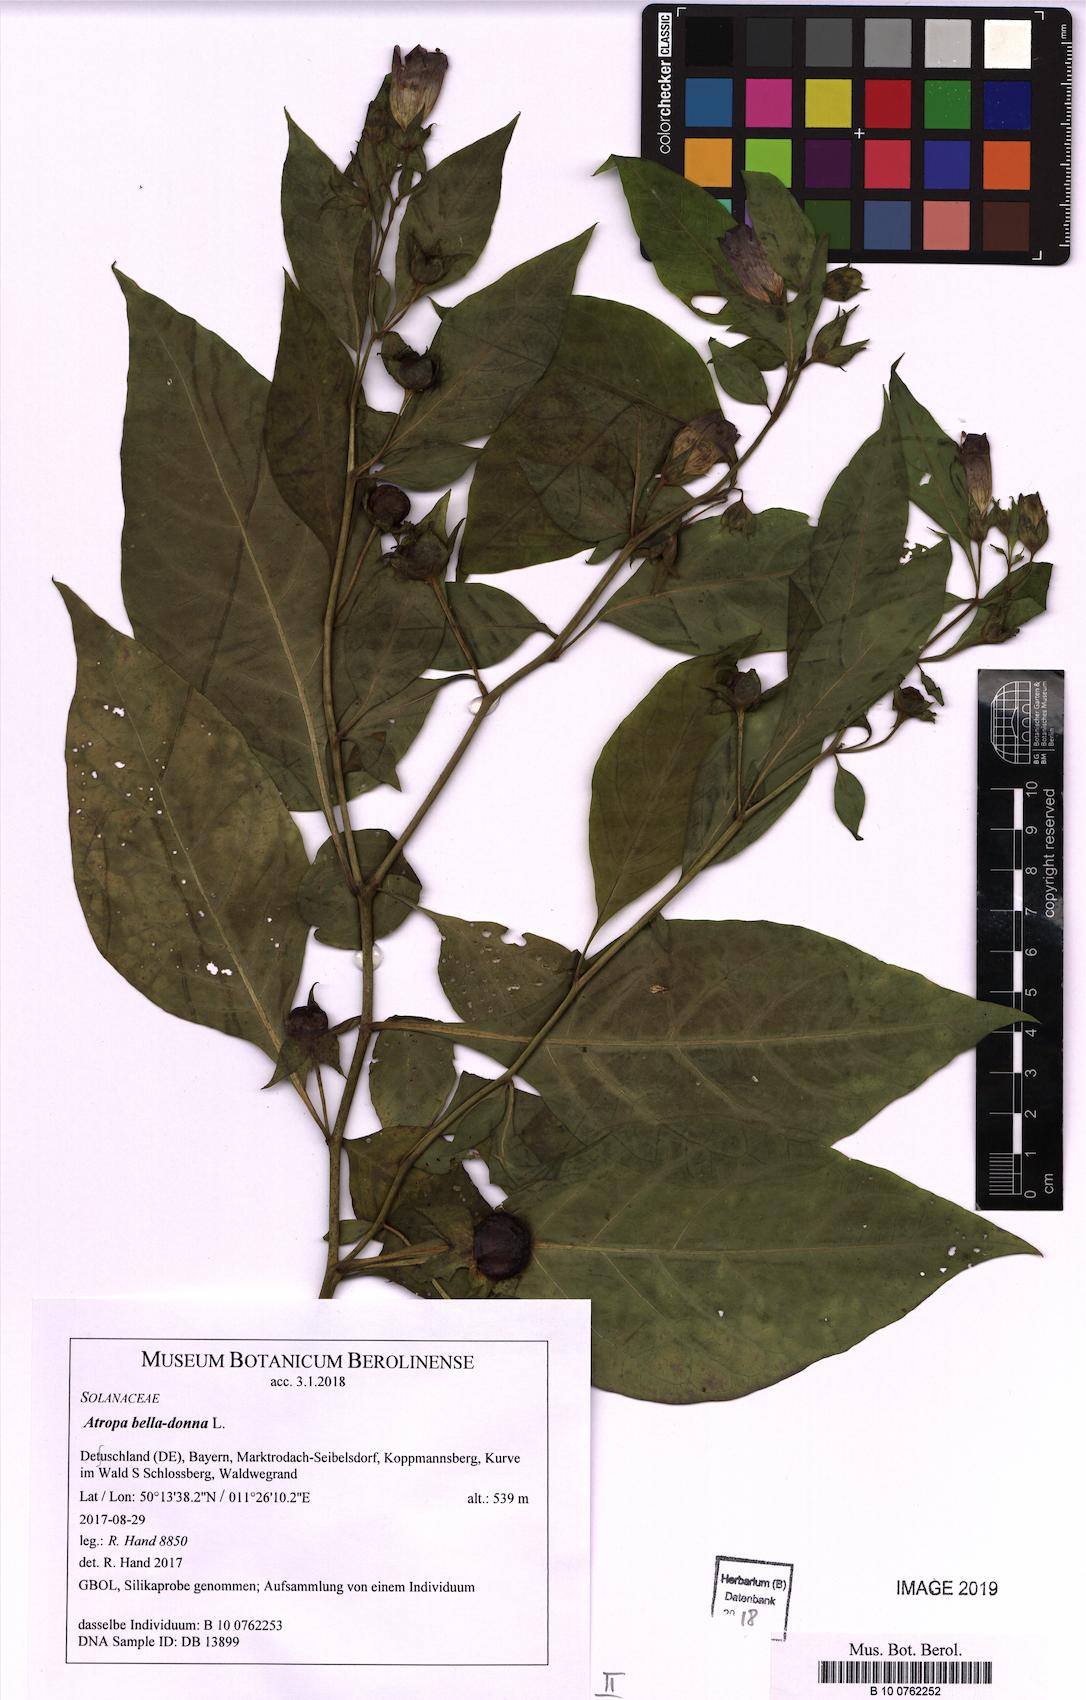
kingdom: Plantae
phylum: Tracheophyta
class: Magnoliopsida
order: Solanales
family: Solanaceae
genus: Atropa
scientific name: Atropa belladonna
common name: Deadly nightshade
